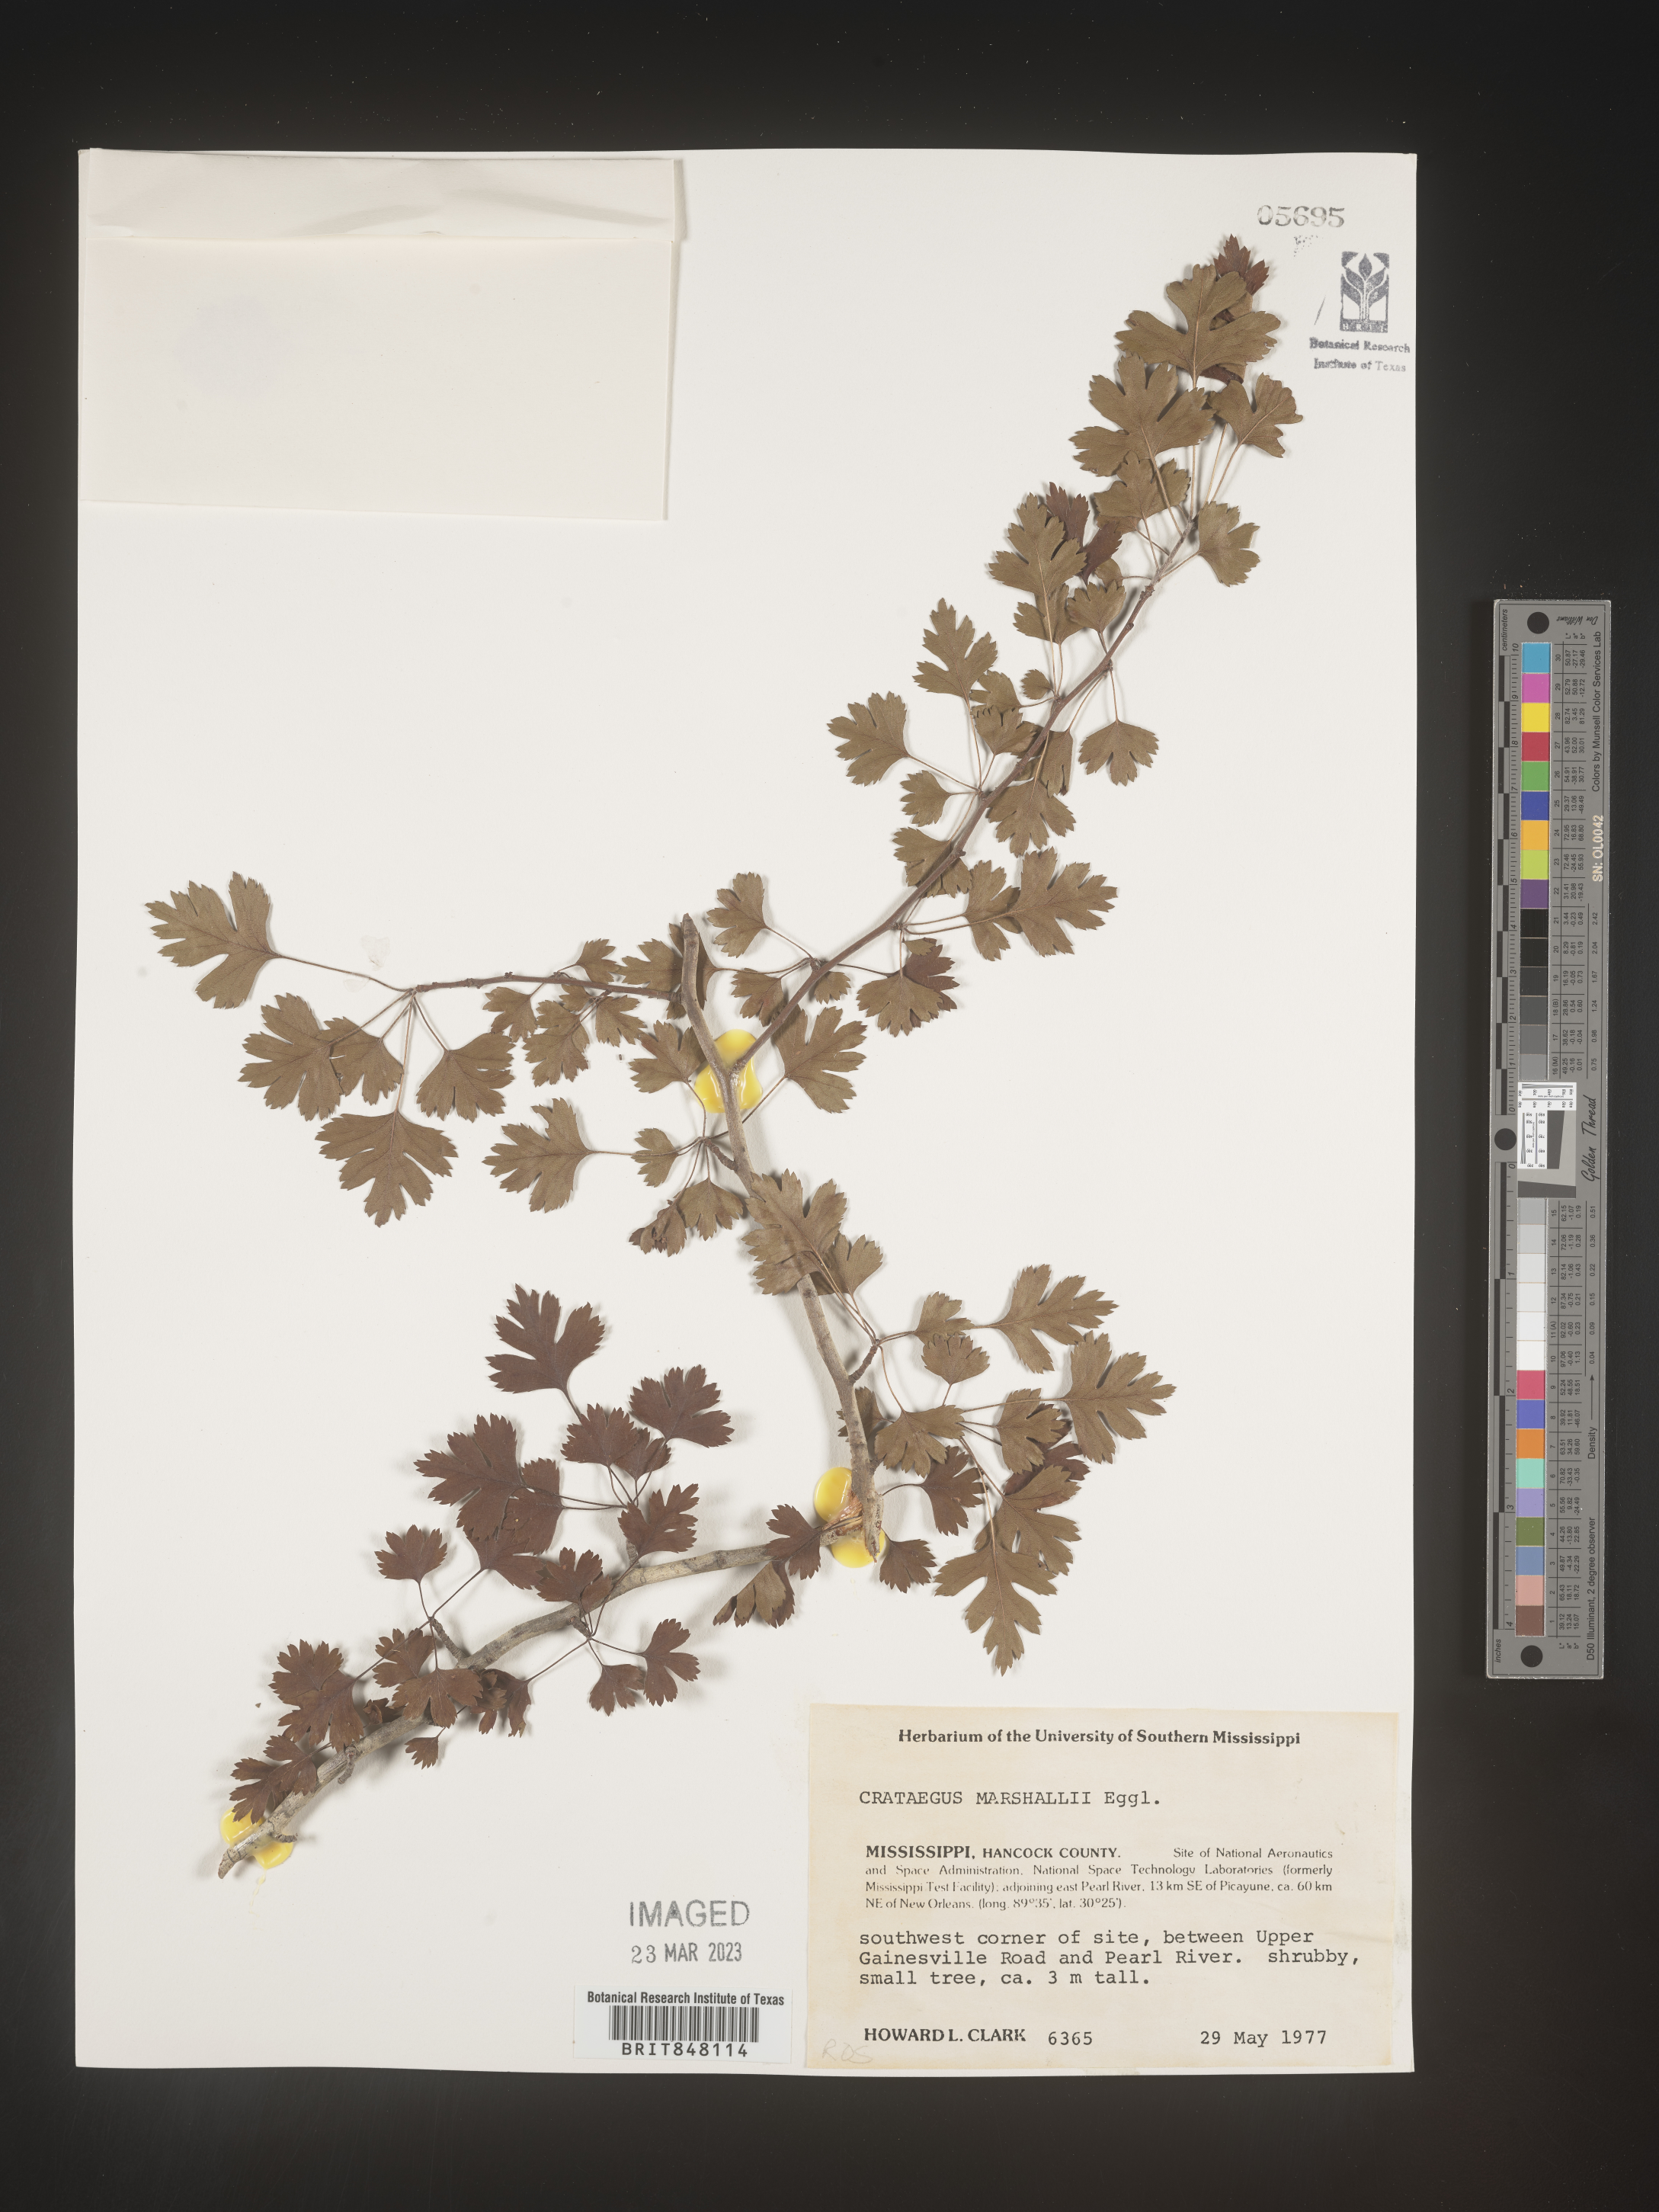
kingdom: Plantae
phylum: Tracheophyta
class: Magnoliopsida
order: Rosales
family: Rosaceae
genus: Crataegus
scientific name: Crataegus marshallii
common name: Parsley-hawthorn
